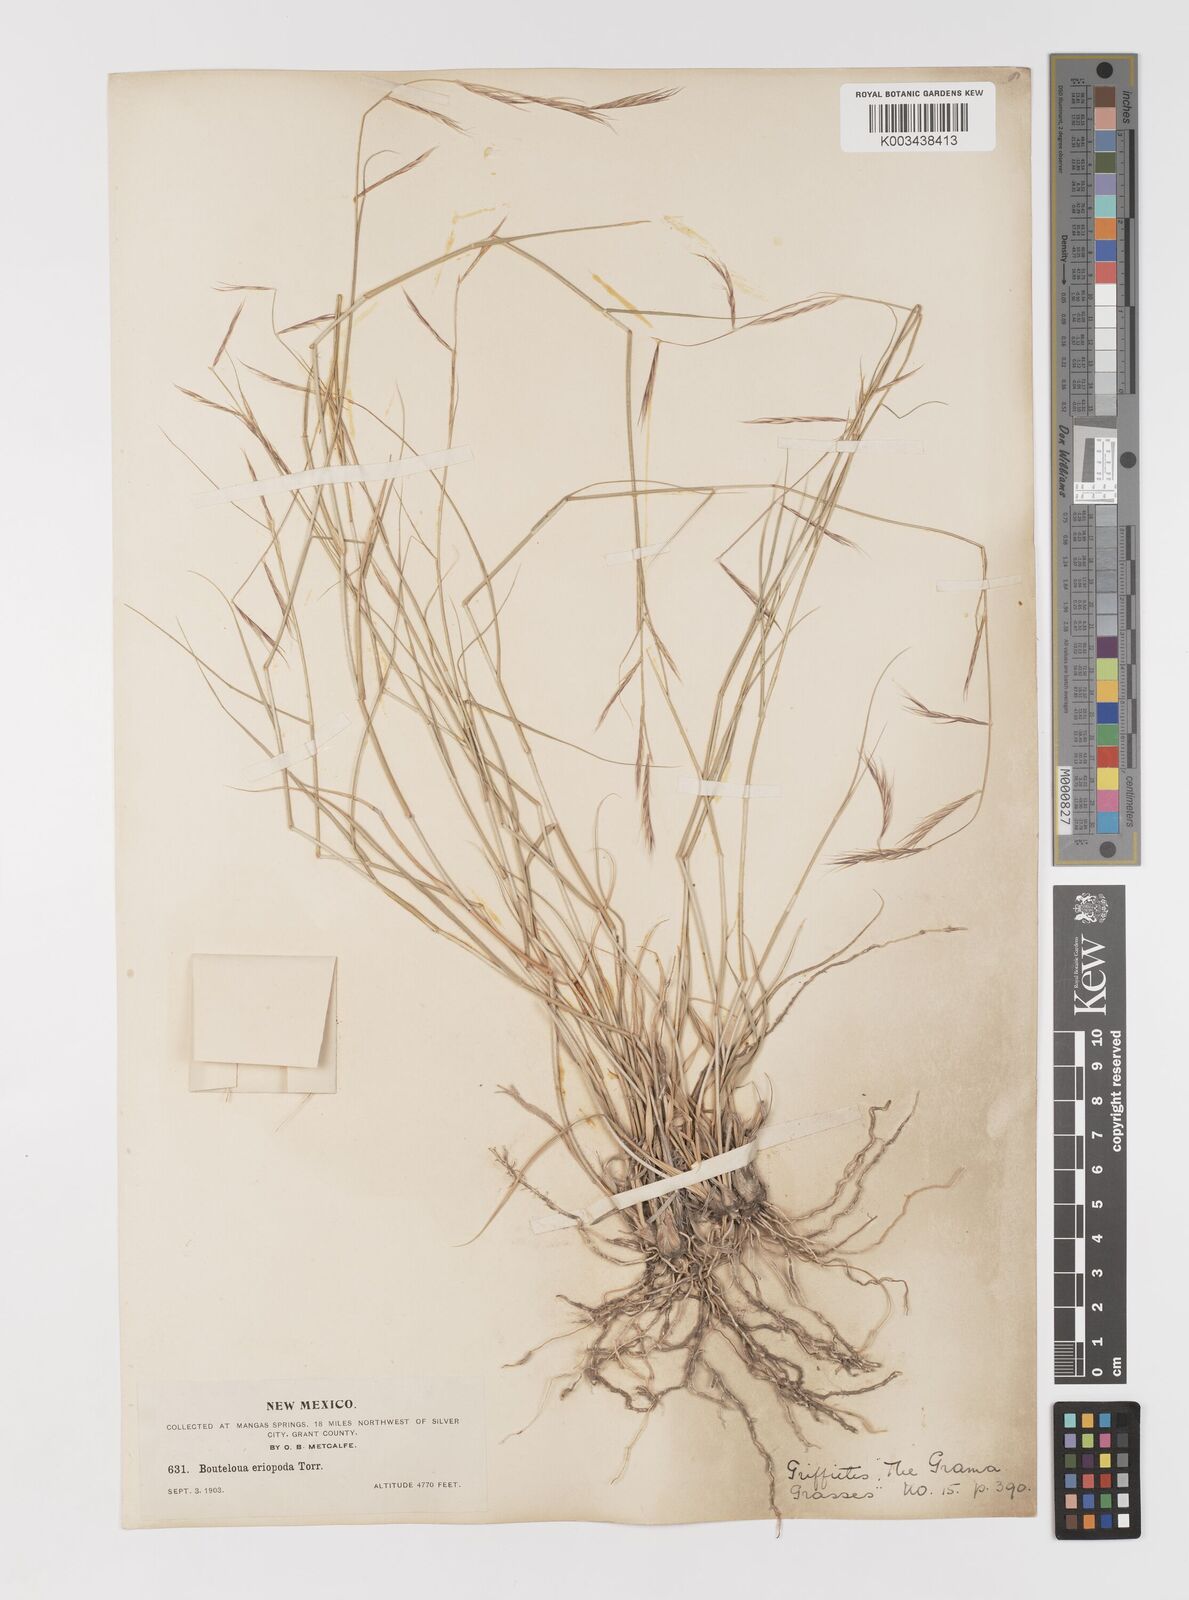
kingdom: Plantae
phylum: Tracheophyta
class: Liliopsida
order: Poales
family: Poaceae
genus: Bouteloua
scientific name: Bouteloua eriopoda
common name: Woolly foot grama
